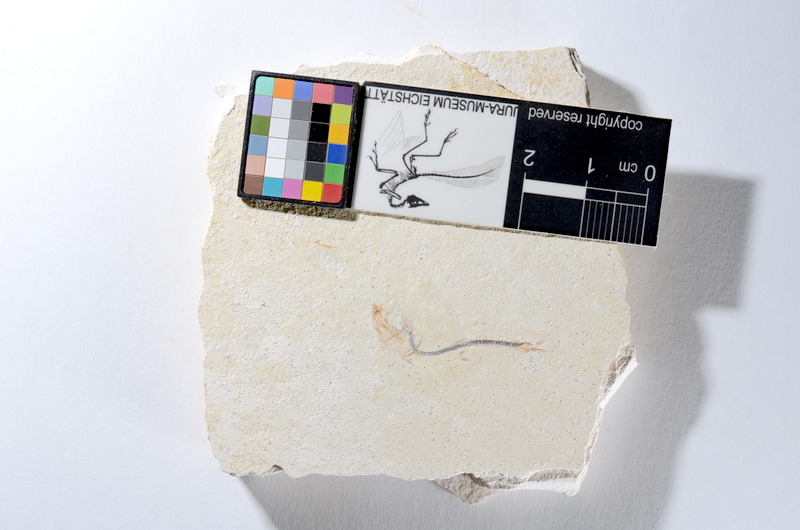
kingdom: Animalia
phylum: Chordata
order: Salmoniformes
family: Orthogonikleithridae
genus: Orthogonikleithrus
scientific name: Orthogonikleithrus hoelli
